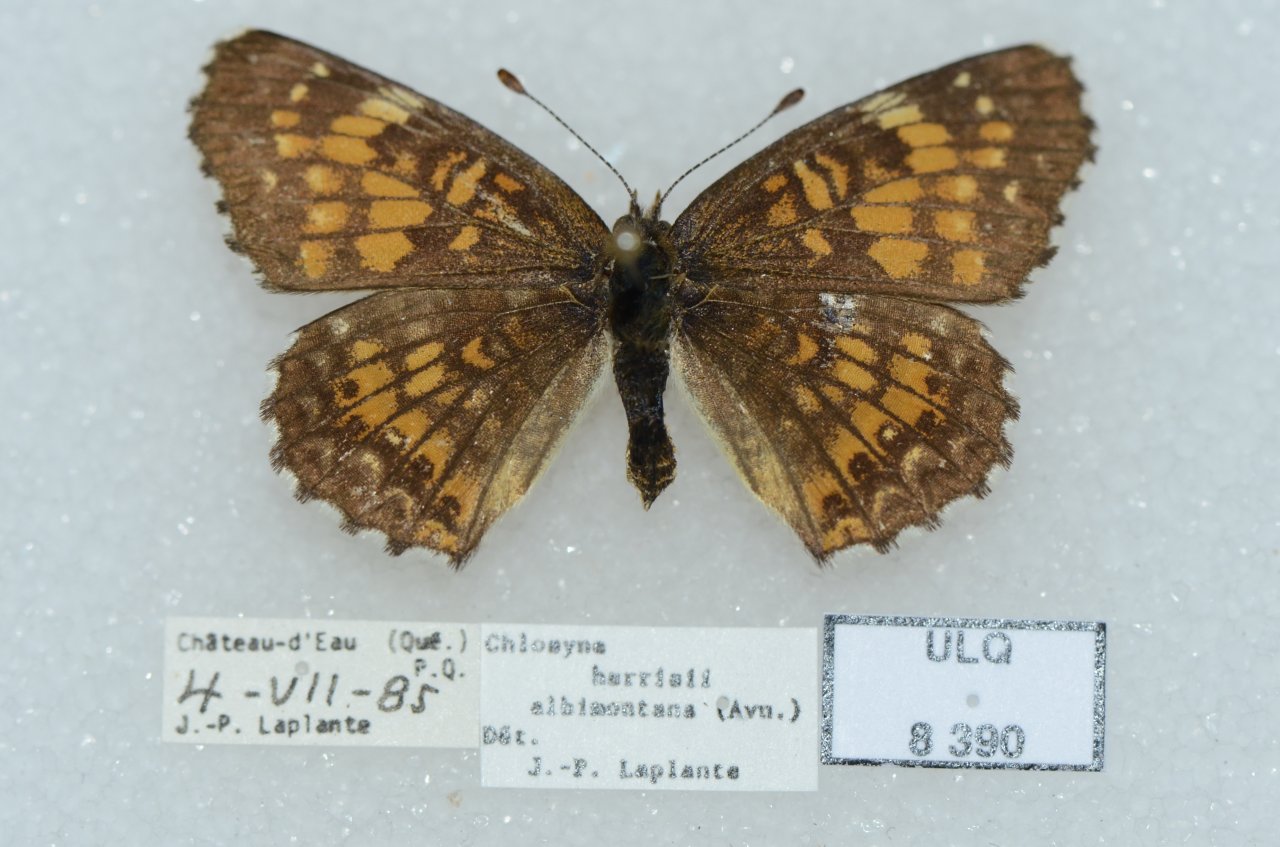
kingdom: Animalia
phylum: Arthropoda
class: Insecta
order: Lepidoptera
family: Nymphalidae
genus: Chlosyne
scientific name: Chlosyne harrisii
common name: Harris's Checkerspot
